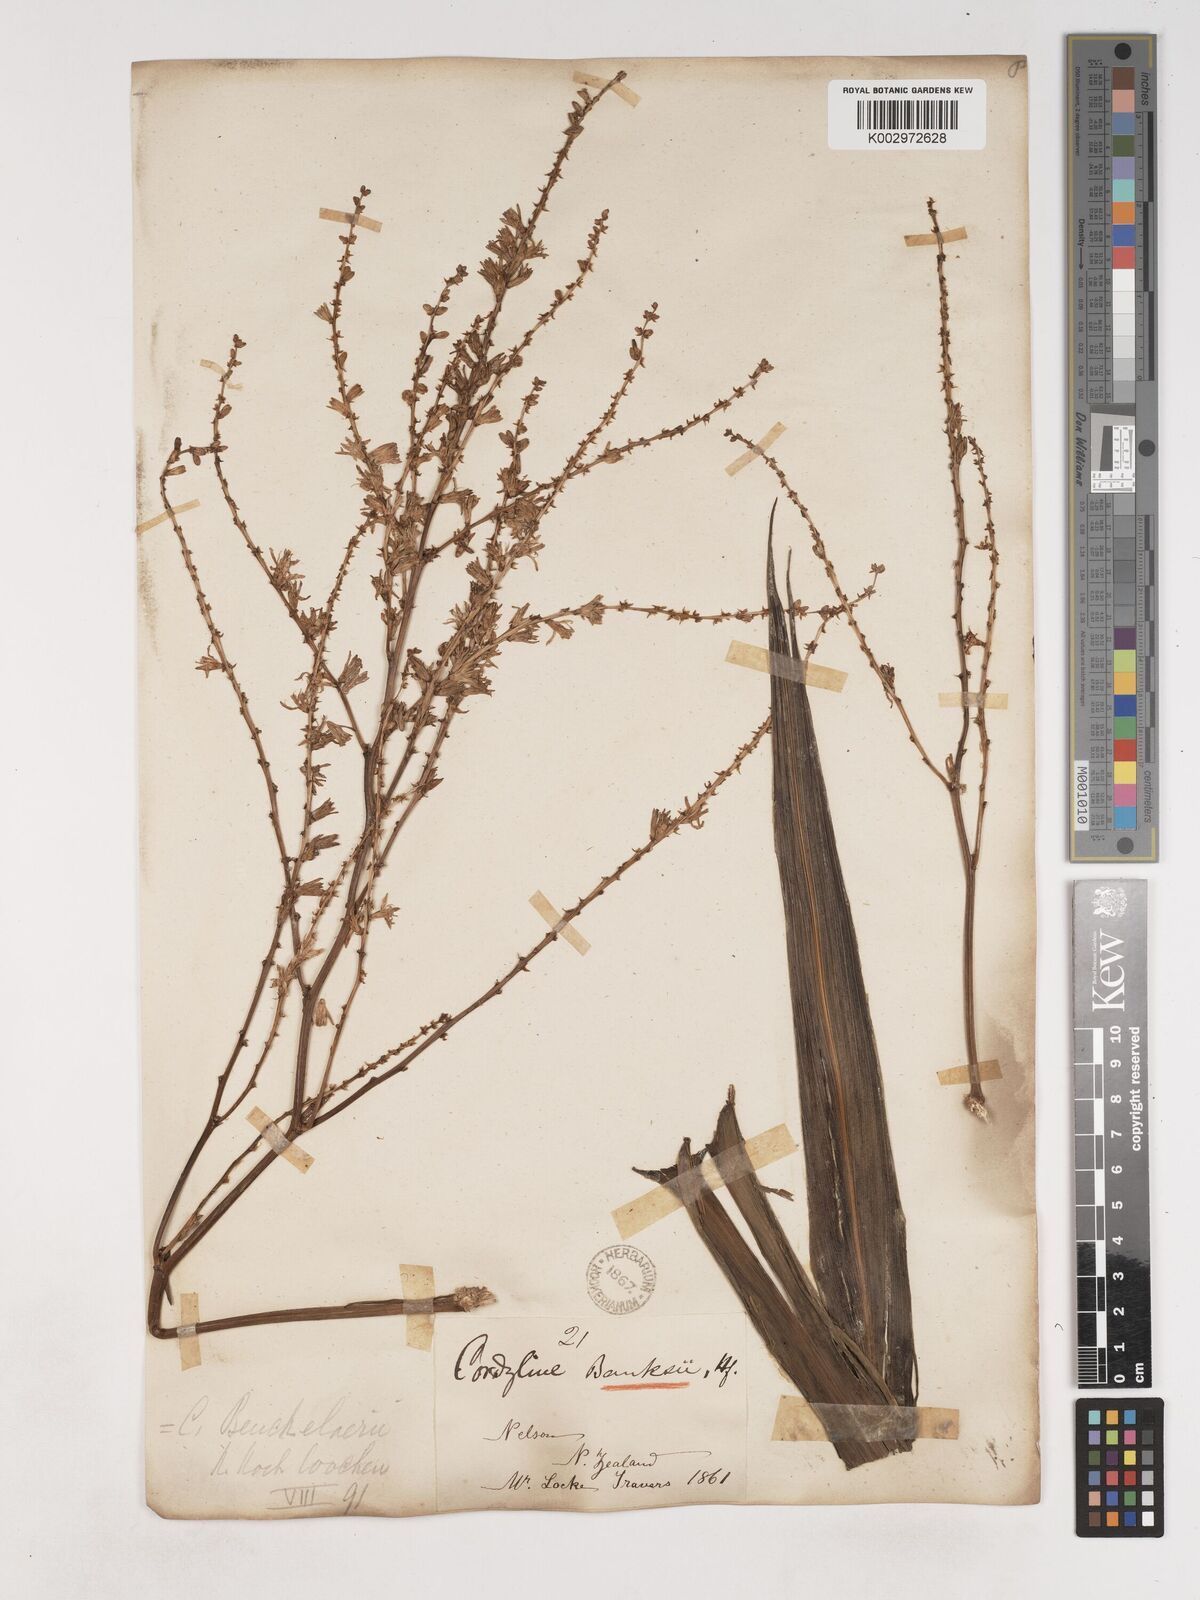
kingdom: Plantae
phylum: Tracheophyta
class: Liliopsida
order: Asparagales
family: Asparagaceae
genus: Cordyline
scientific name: Cordyline banksii
